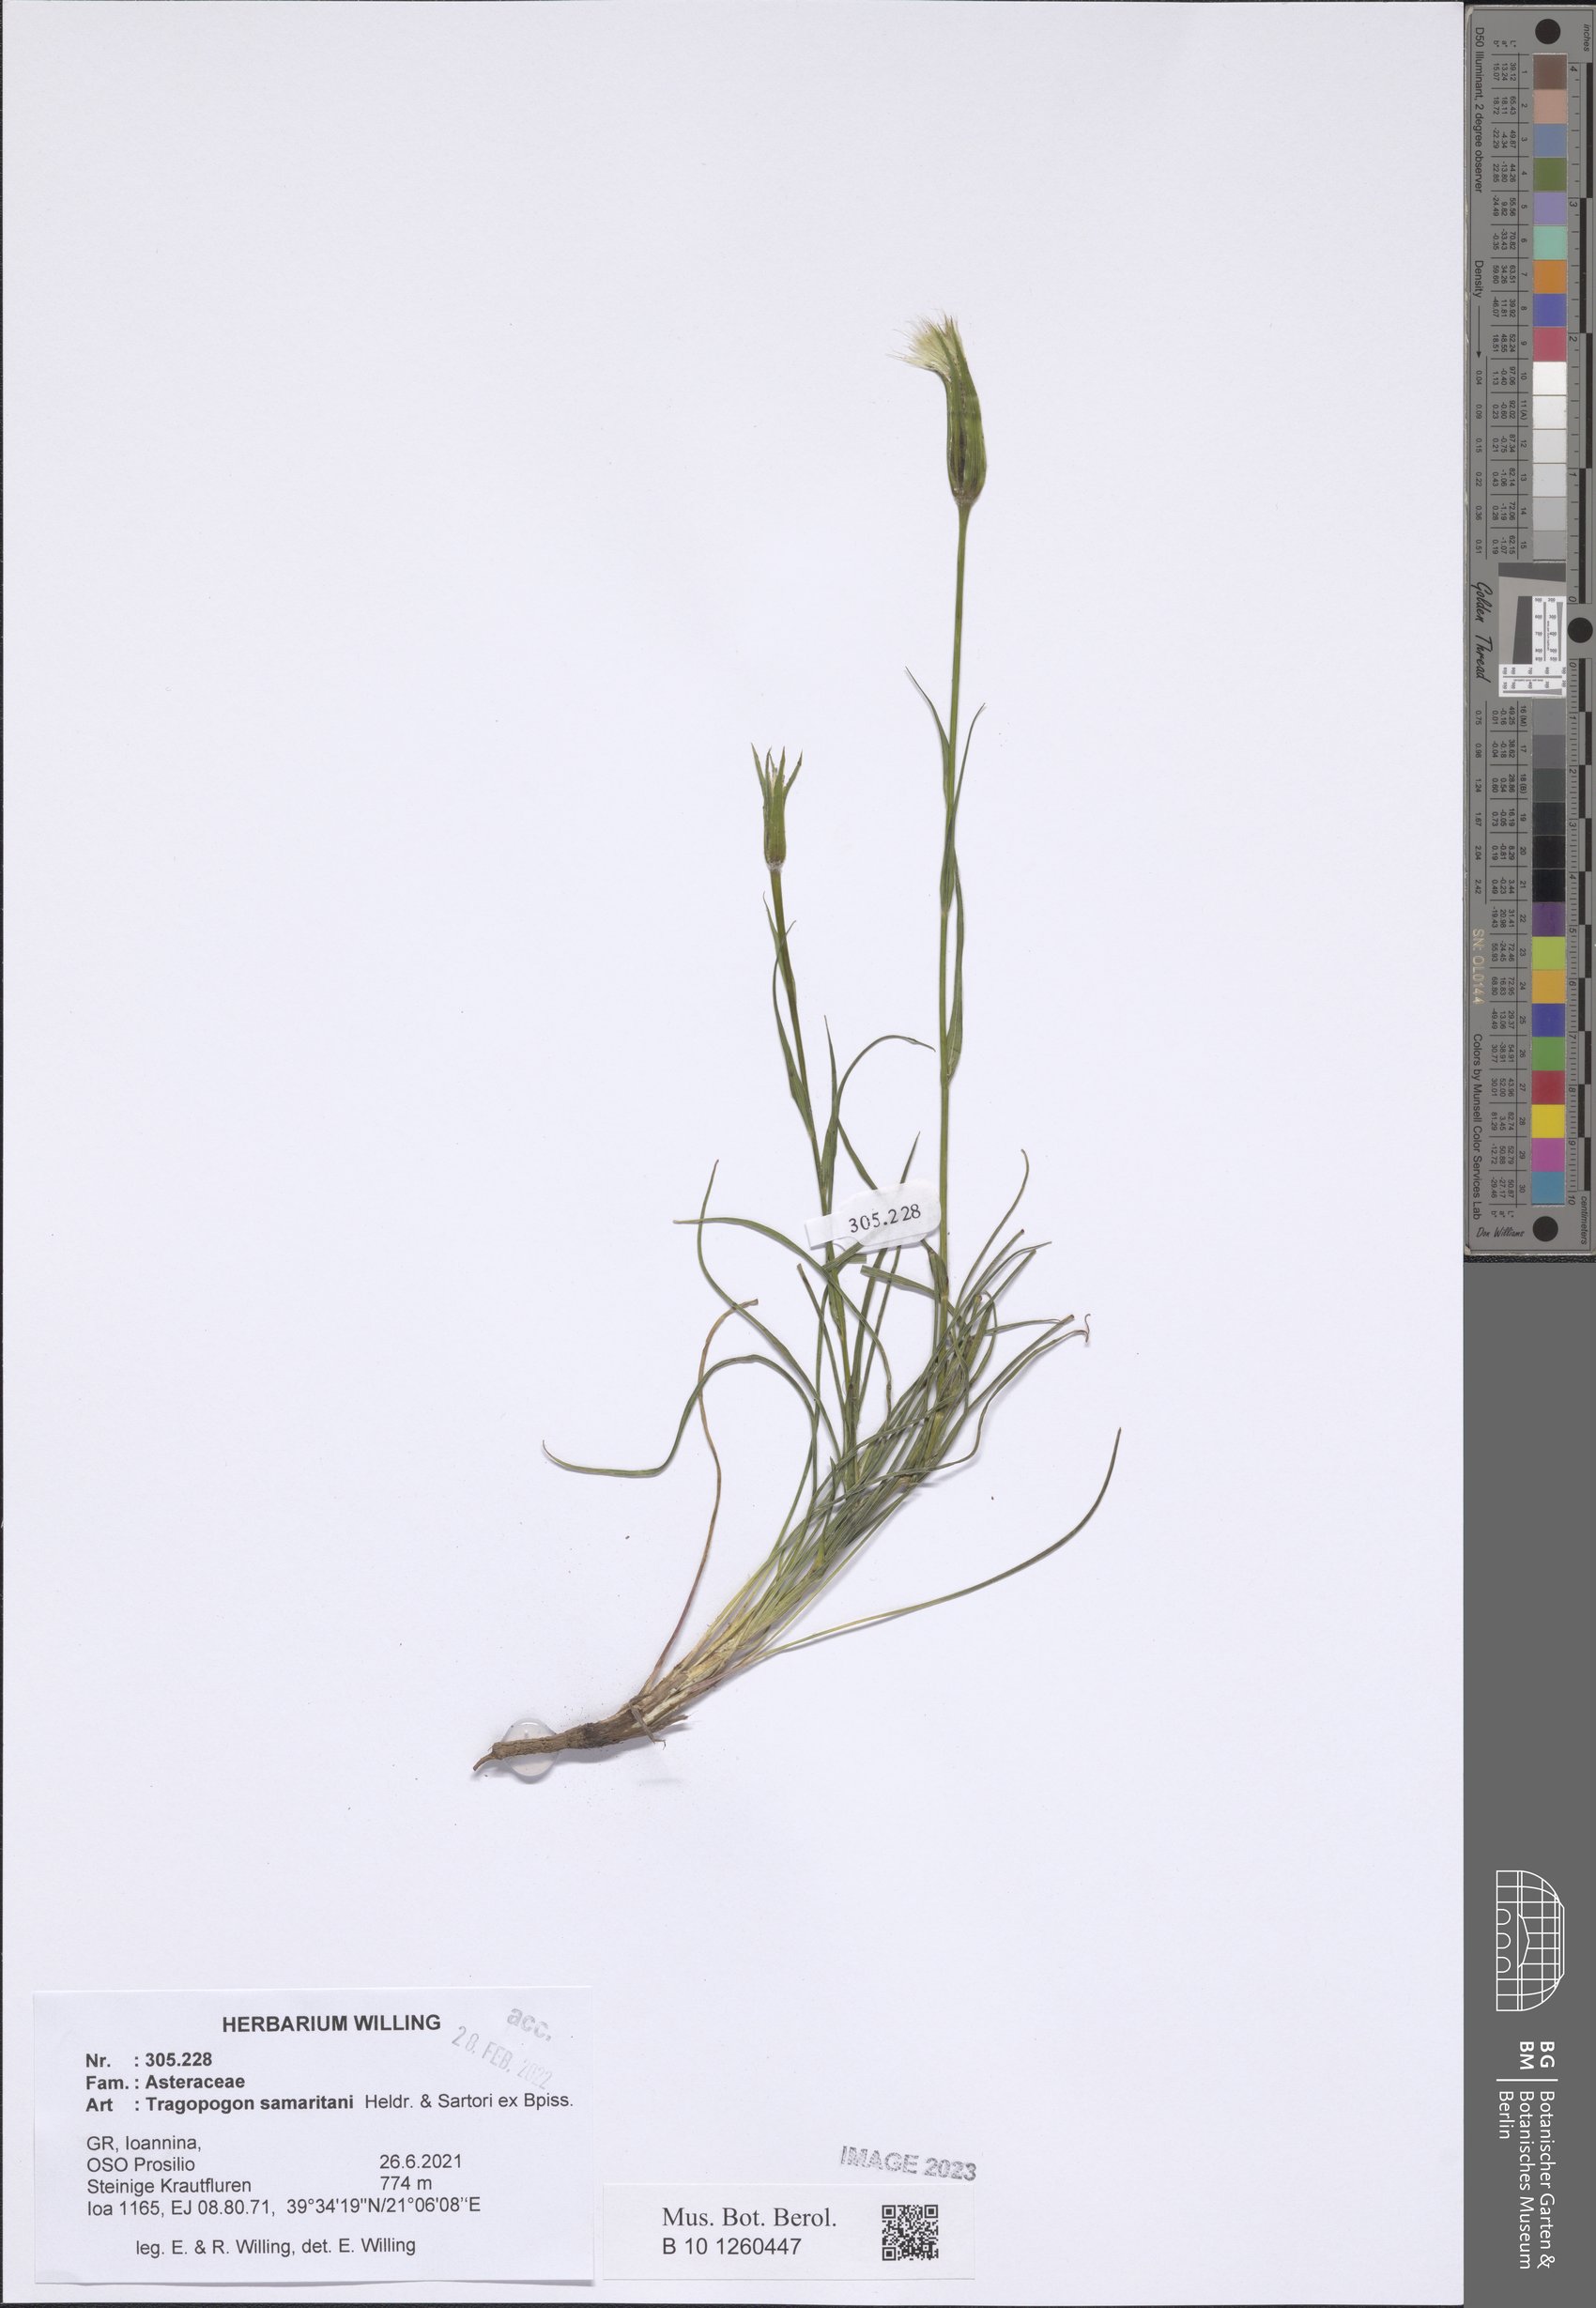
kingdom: Plantae
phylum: Tracheophyta
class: Magnoliopsida
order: Asterales
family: Asteraceae
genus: Tragopogon
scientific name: Tragopogon samaritani
